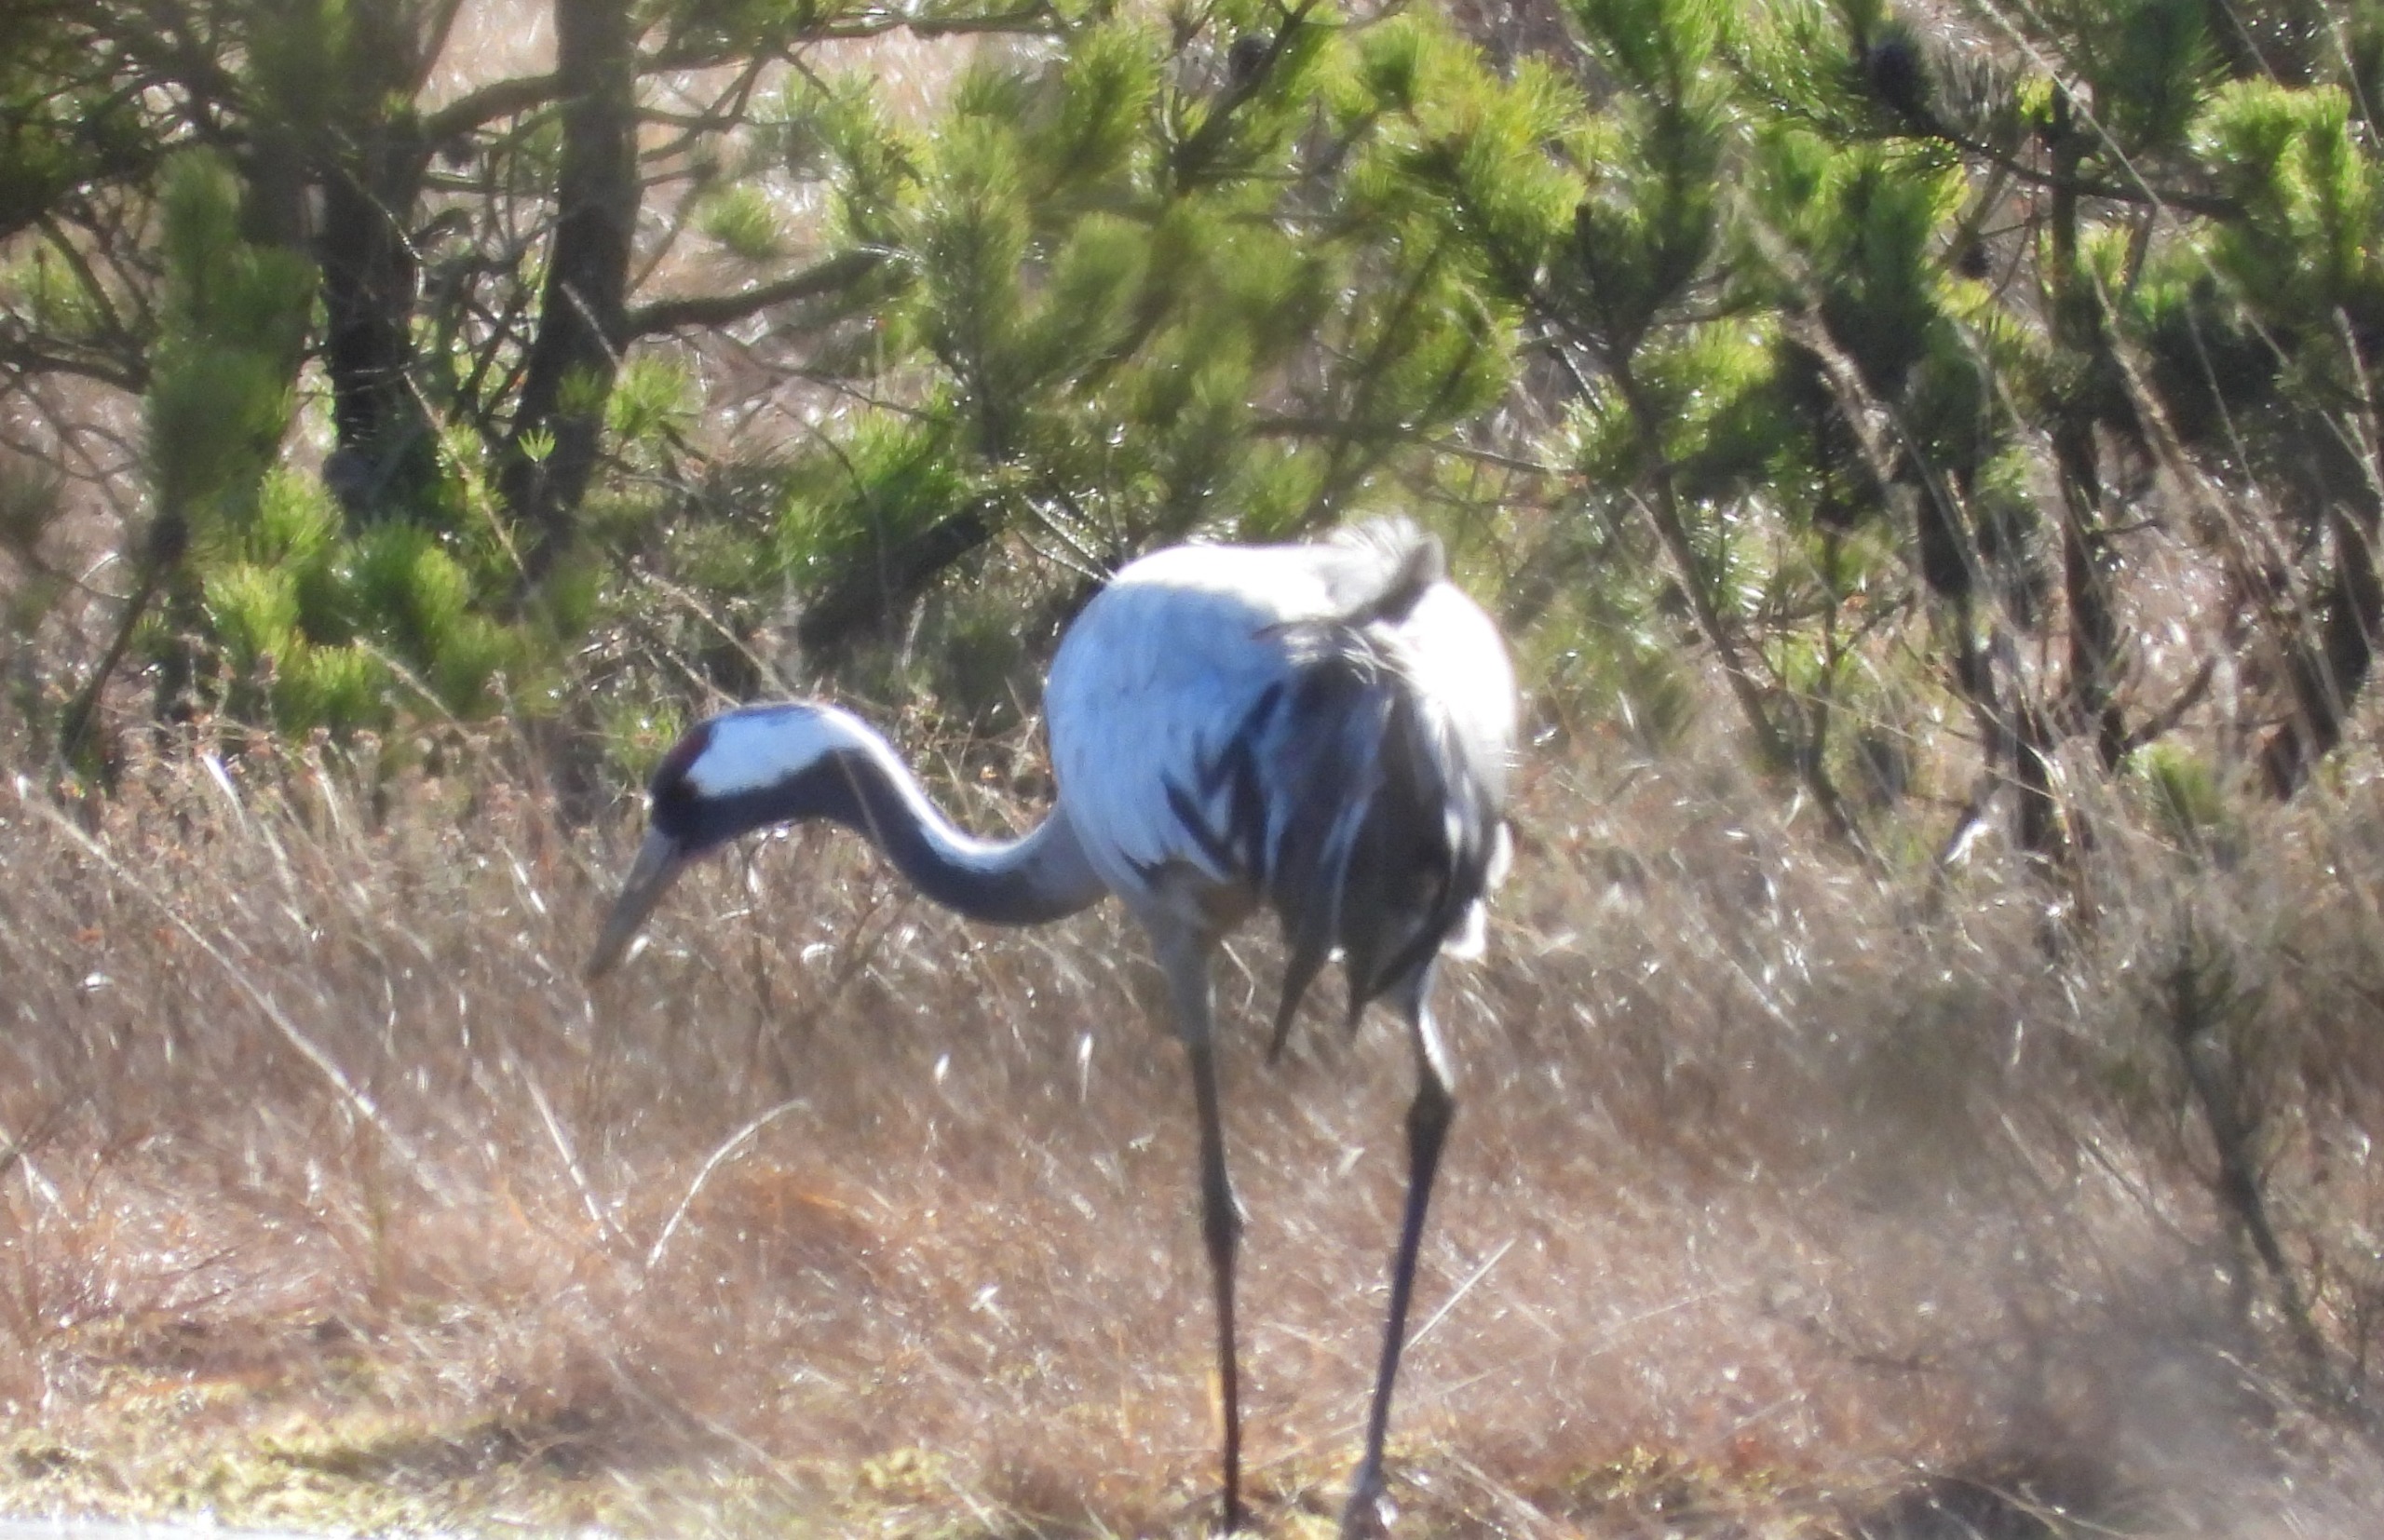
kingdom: Animalia
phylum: Chordata
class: Aves
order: Gruiformes
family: Gruidae
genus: Grus
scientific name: Grus grus
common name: Trane
